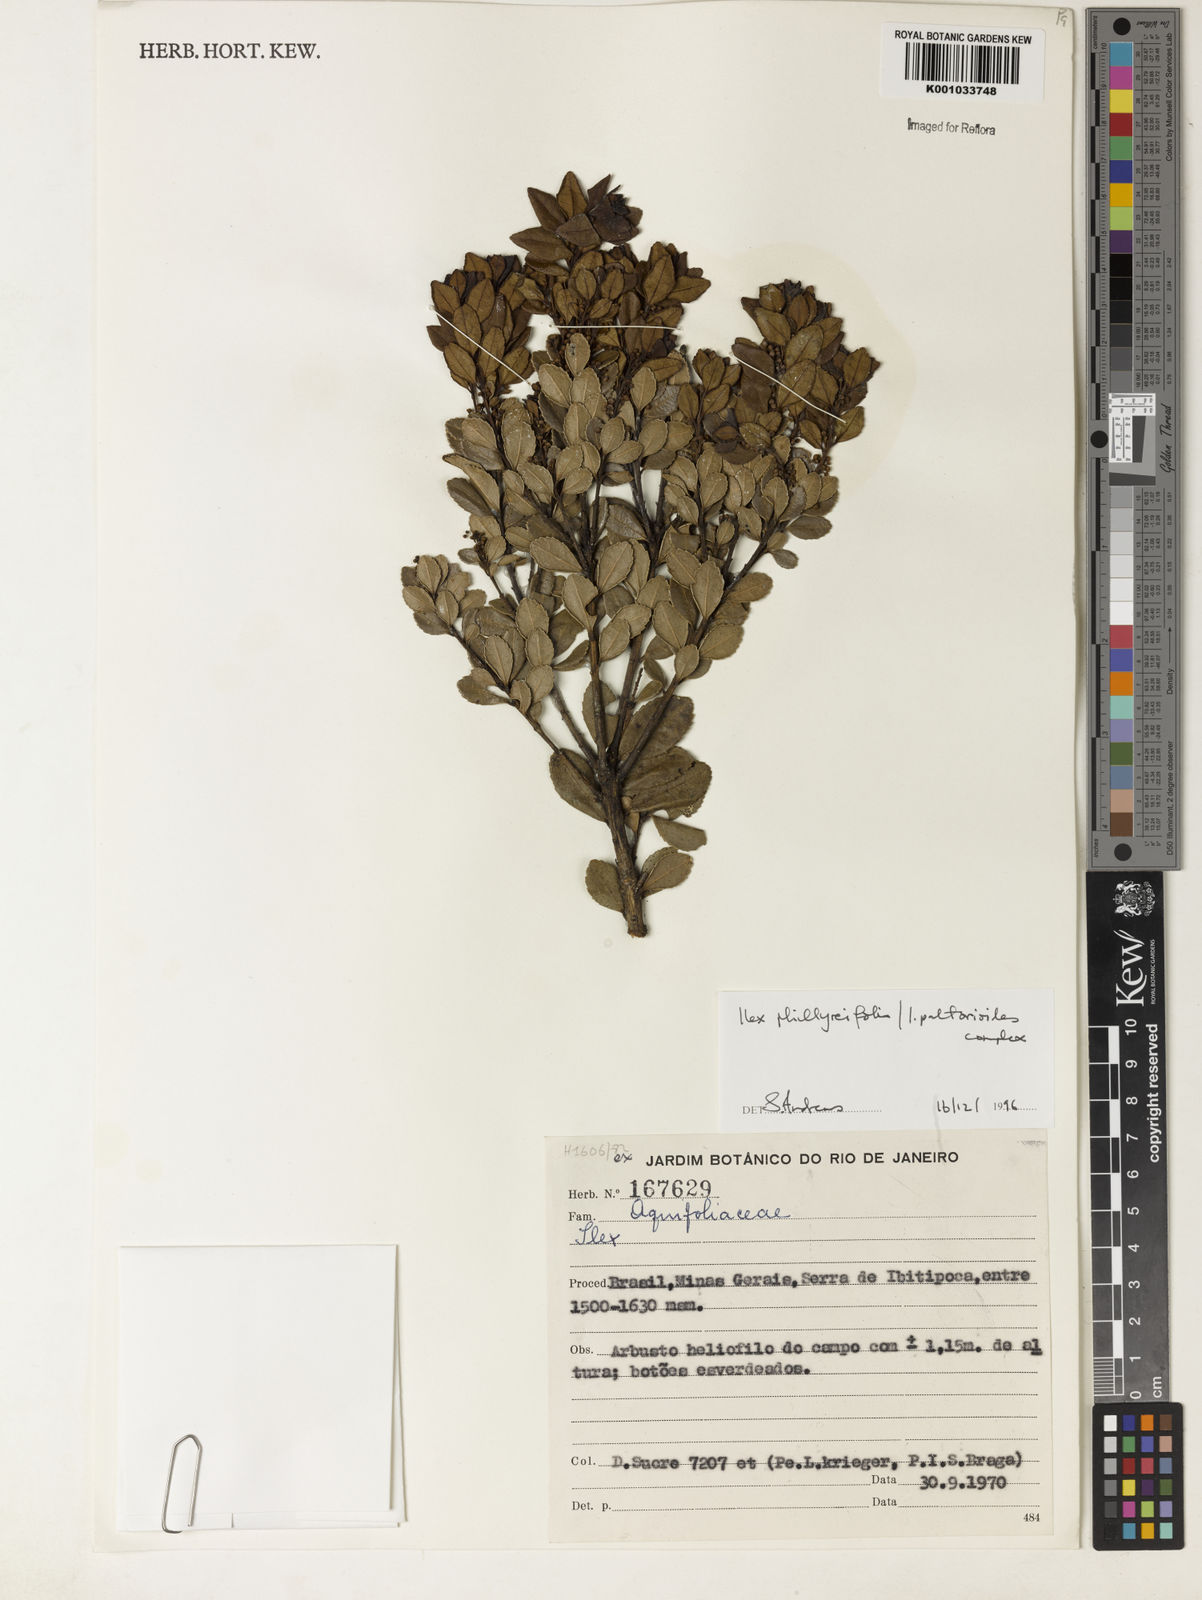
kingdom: Plantae
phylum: Tracheophyta
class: Magnoliopsida
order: Aquifoliales
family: Aquifoliaceae
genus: Ilex
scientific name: Ilex
